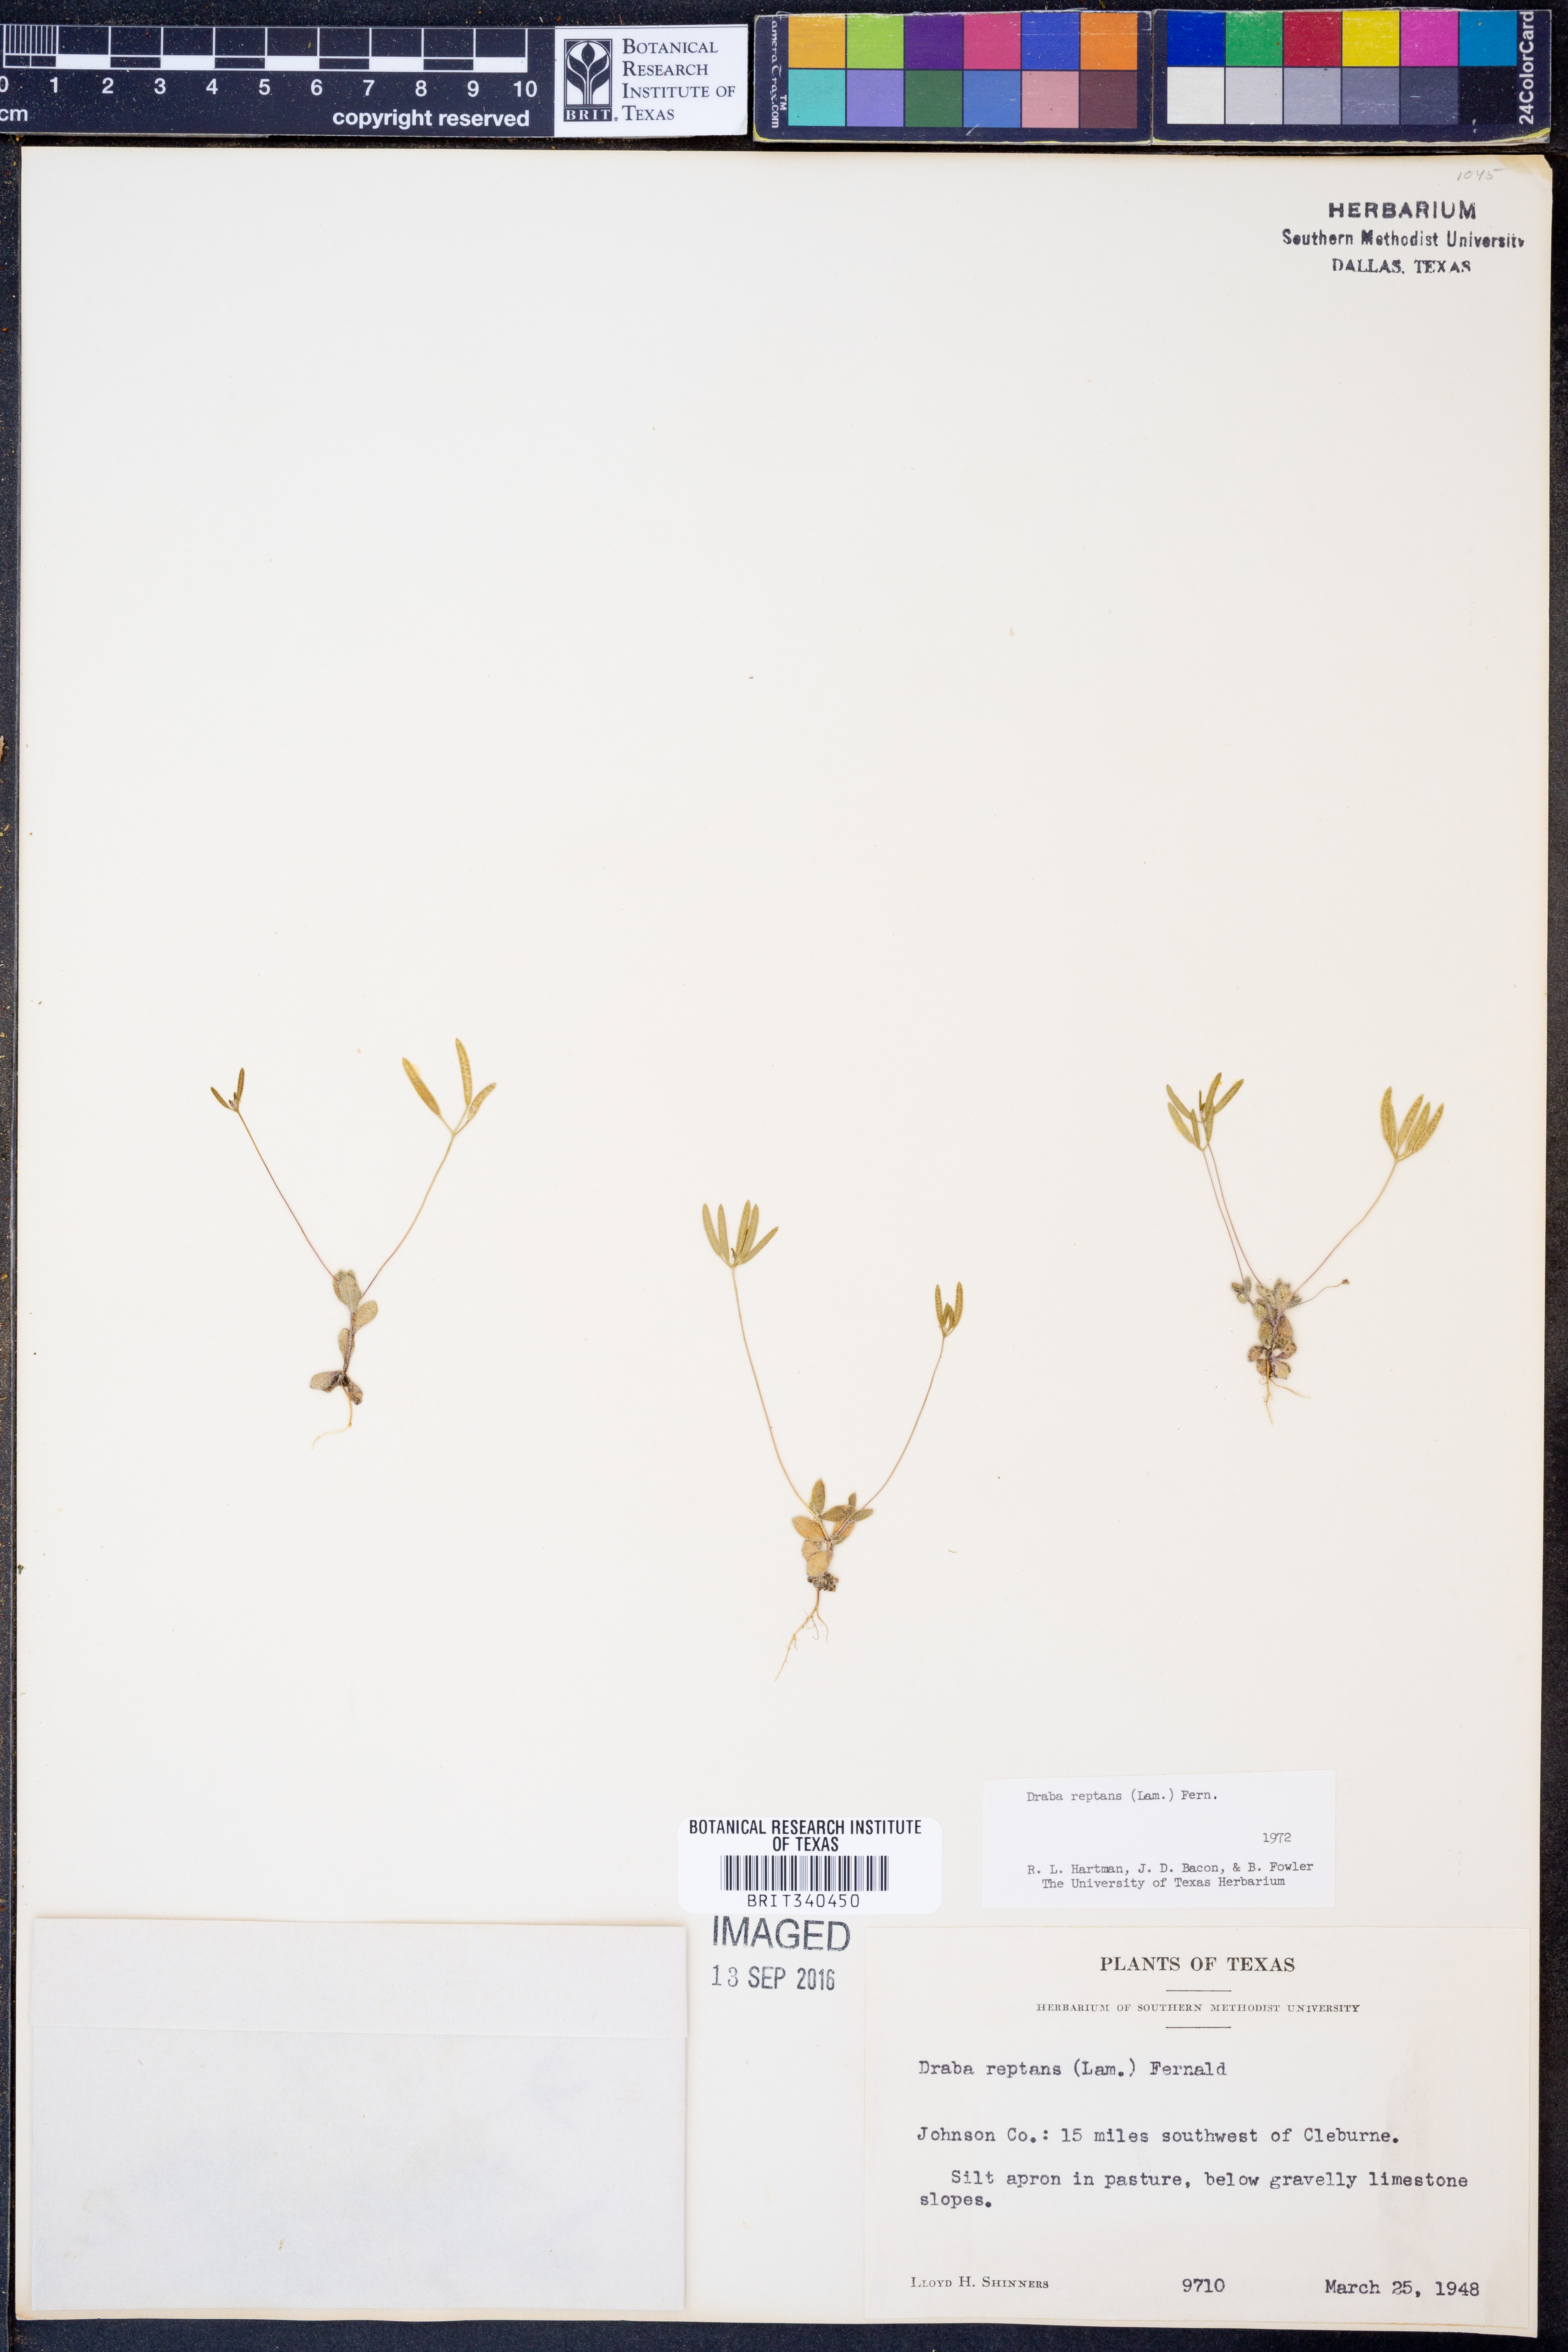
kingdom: Plantae
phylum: Tracheophyta
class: Magnoliopsida
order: Brassicales
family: Brassicaceae
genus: Tomostima
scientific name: Tomostima reptans
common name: Carolina draba
